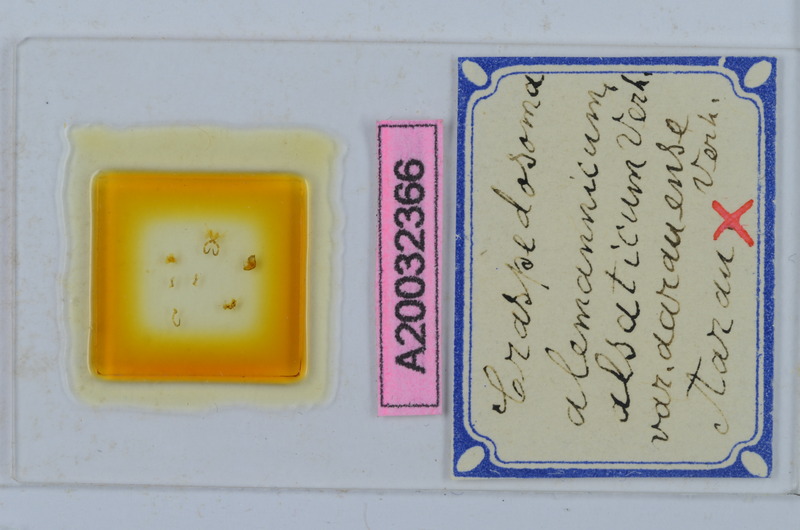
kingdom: Animalia
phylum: Arthropoda
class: Diplopoda
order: Chordeumatida
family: Craspedosomatidae
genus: Craspedosoma
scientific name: Craspedosoma rawlinsii
